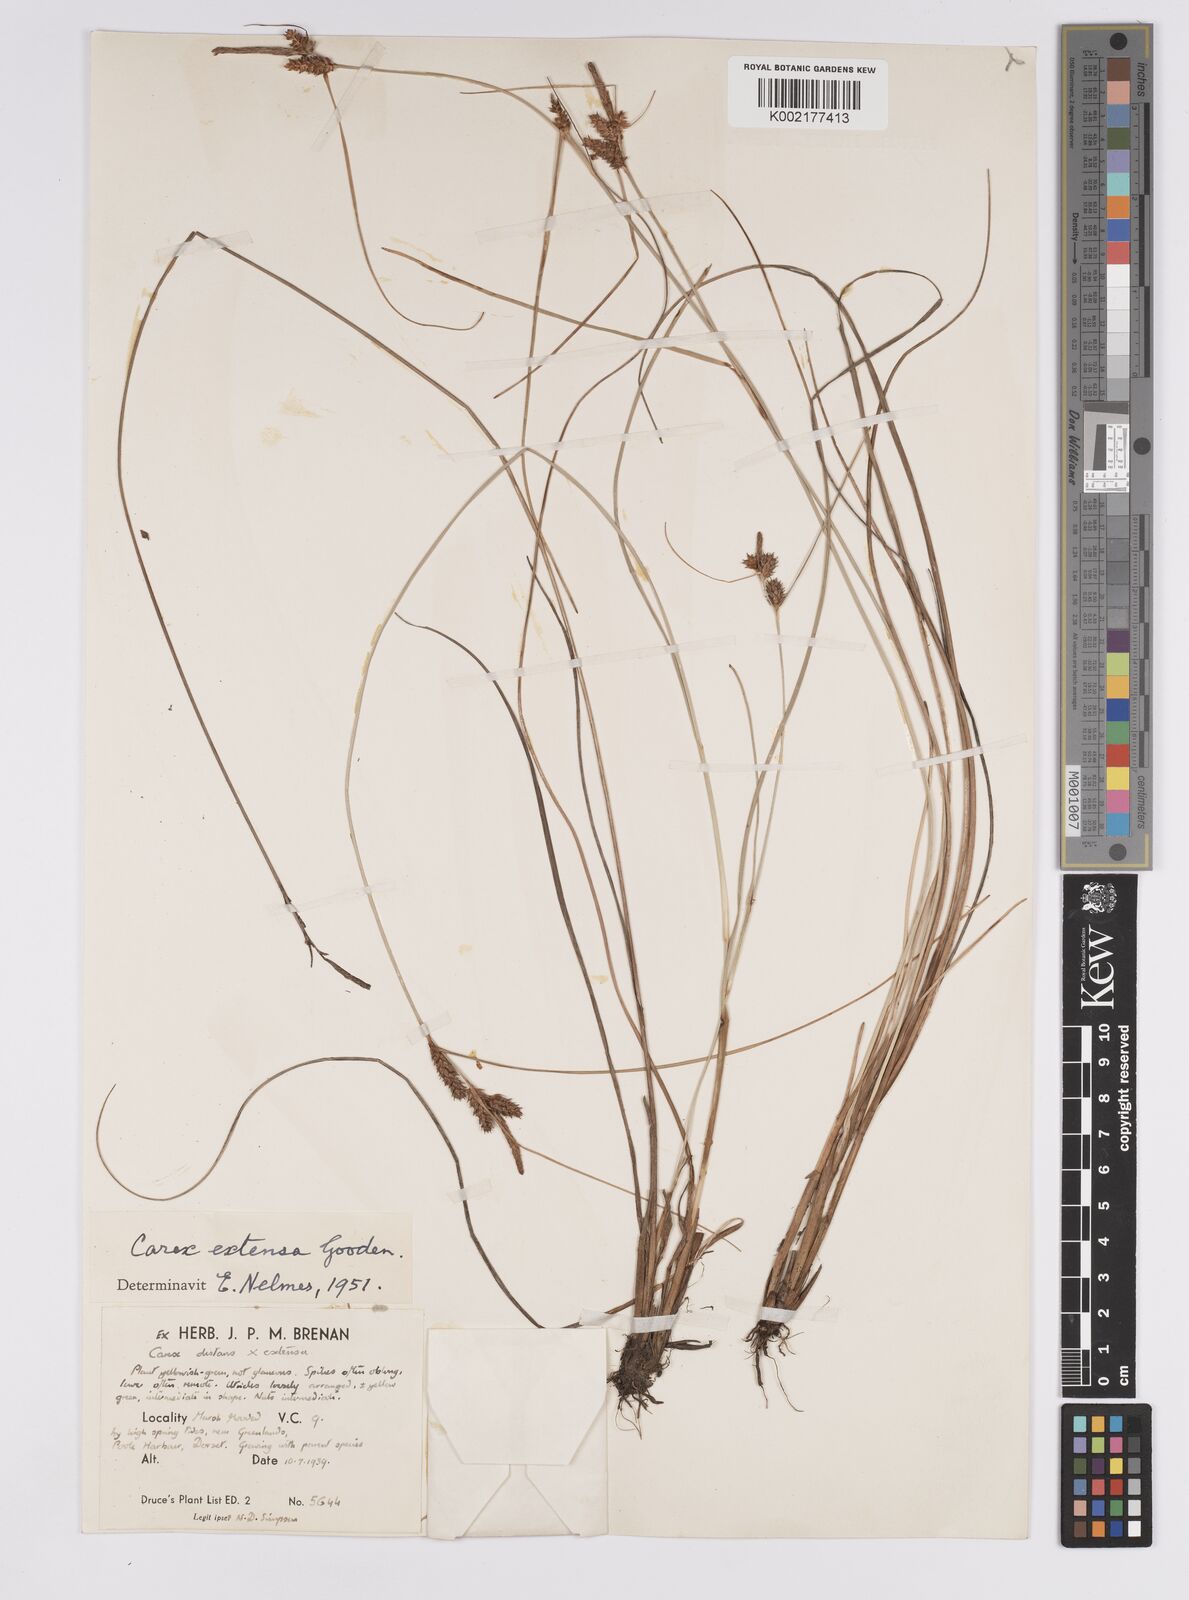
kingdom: Plantae
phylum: Tracheophyta
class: Liliopsida
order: Poales
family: Cyperaceae
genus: Carex
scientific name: Carex extensa
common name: Long-bracted sedge
